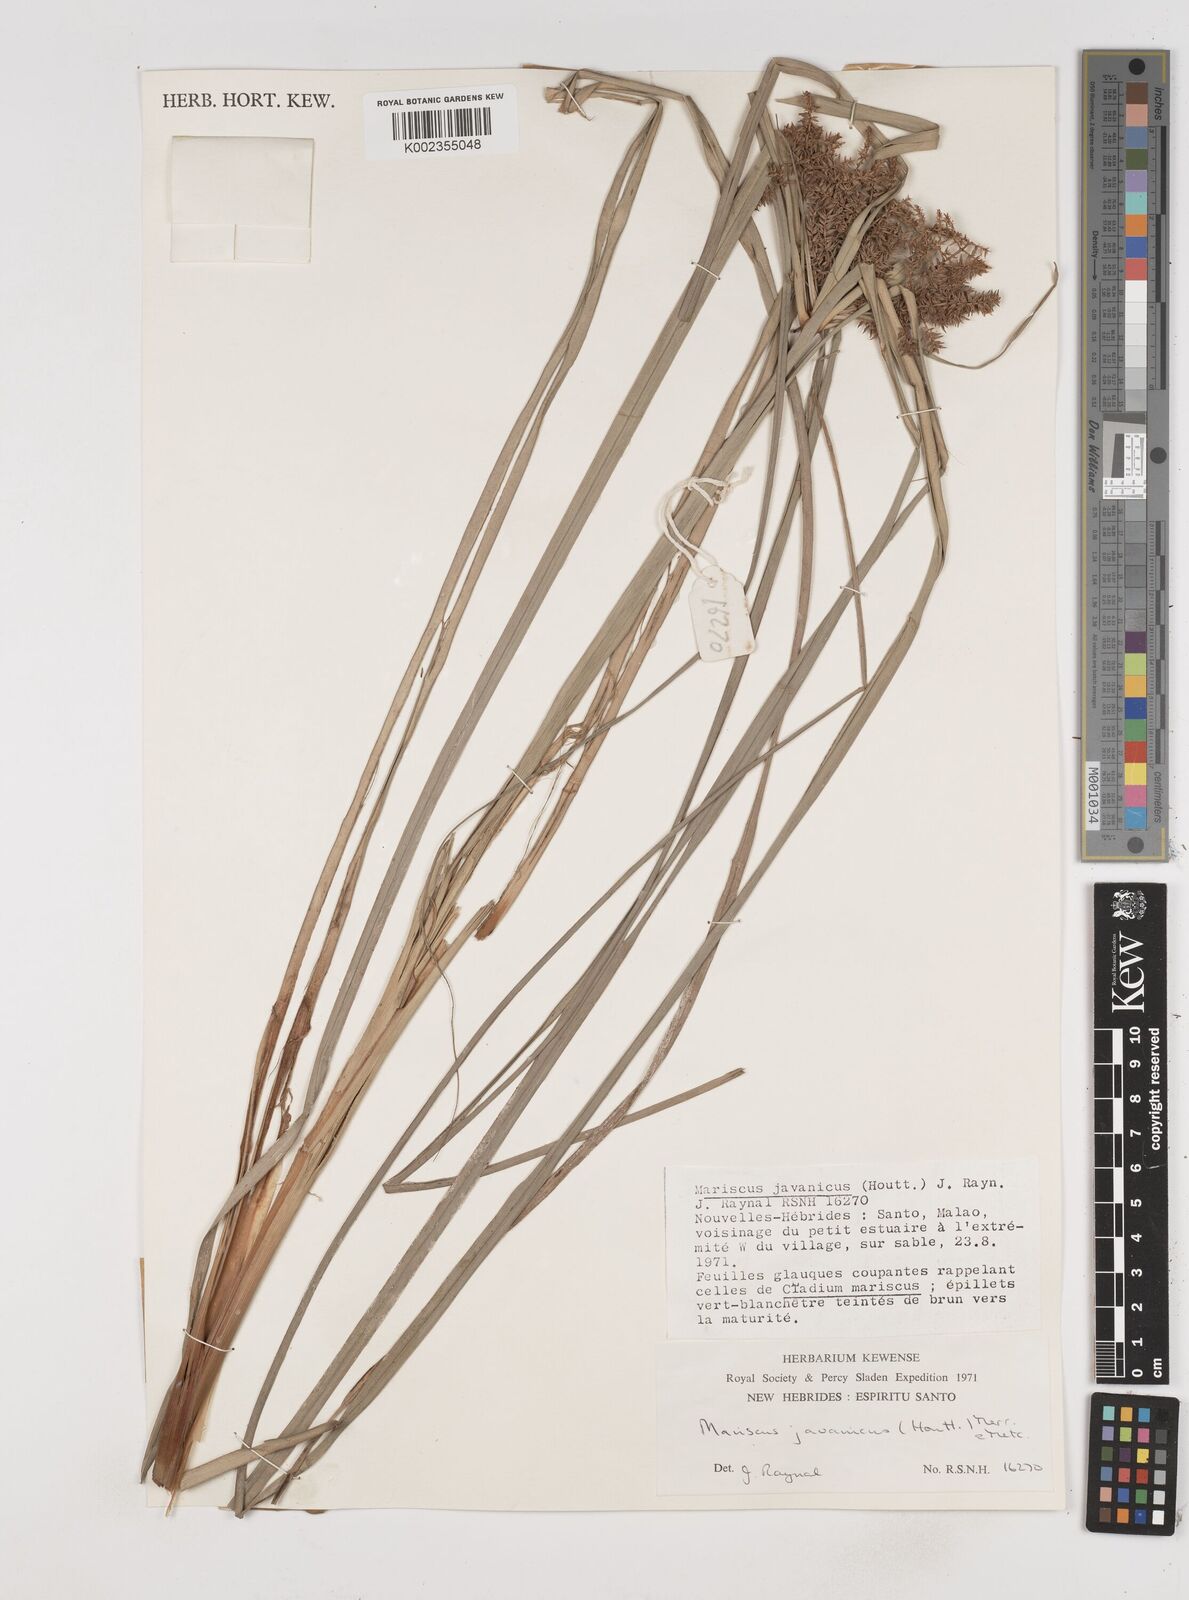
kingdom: Plantae
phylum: Tracheophyta
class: Liliopsida
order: Poales
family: Cyperaceae
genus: Cyperus
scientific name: Cyperus javanicus
